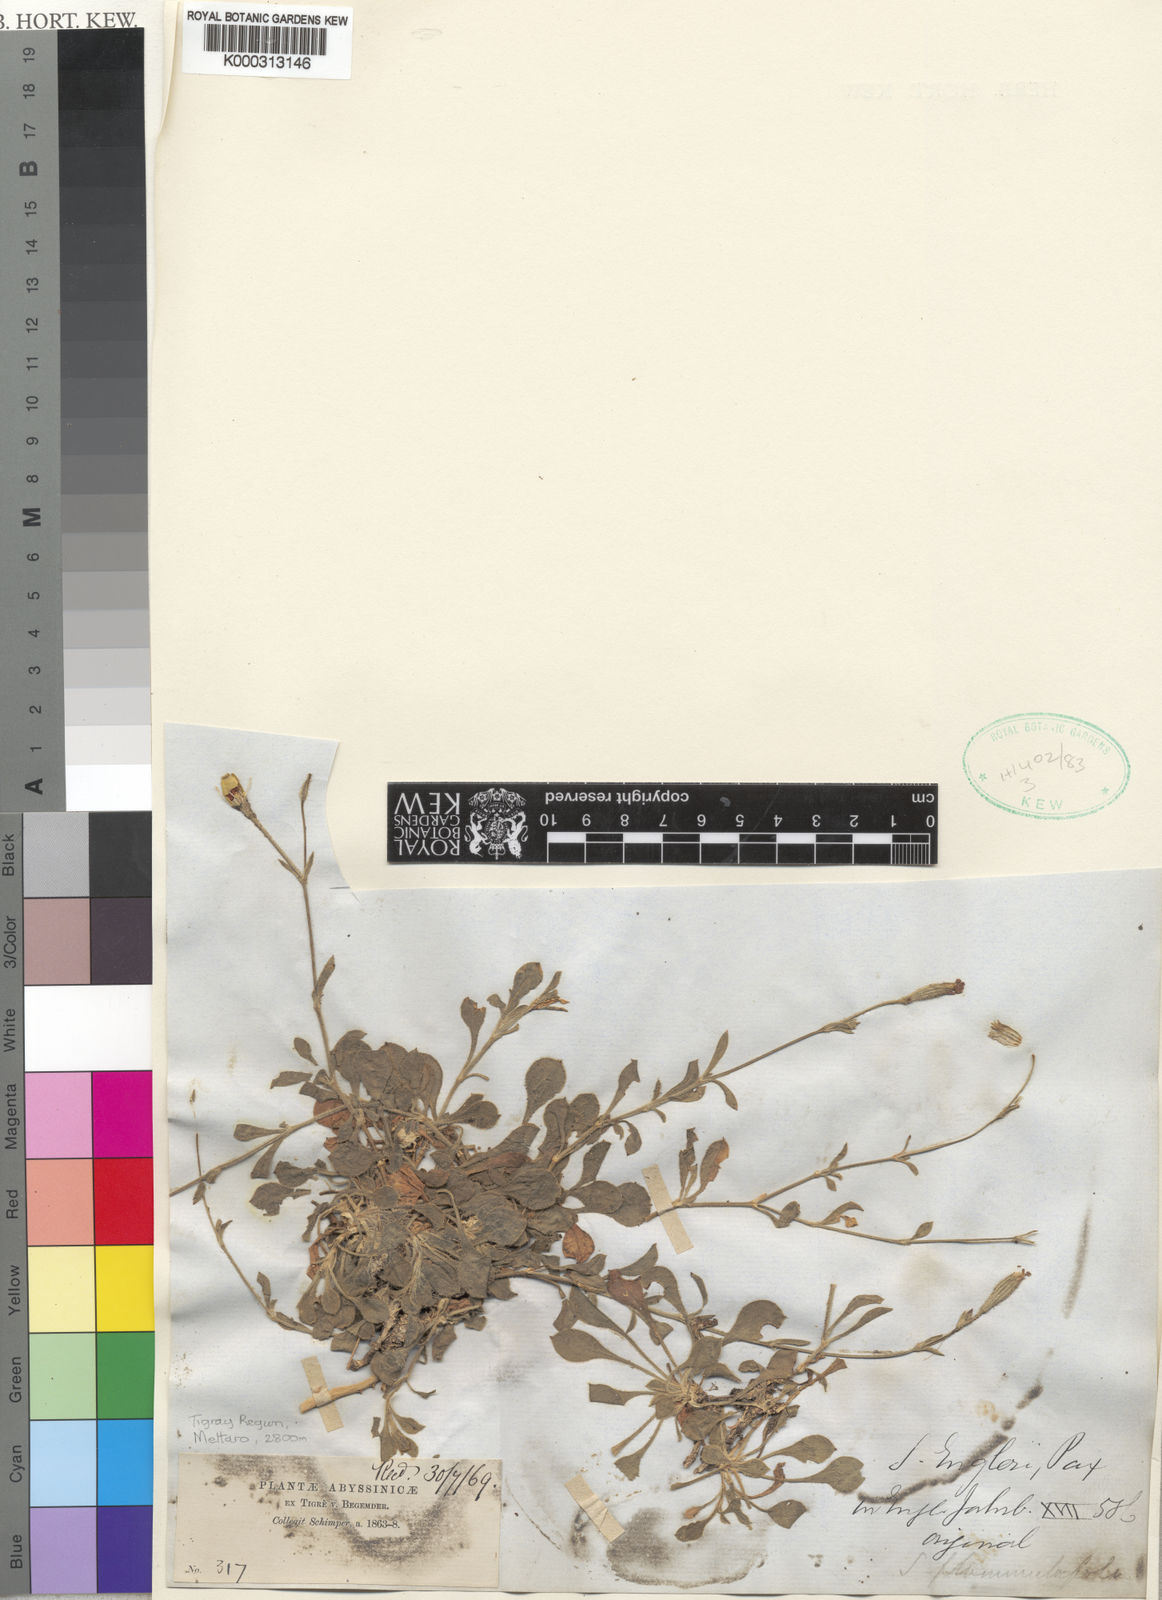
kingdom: Plantae
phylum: Tracheophyta
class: Magnoliopsida
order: Caryophyllales
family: Caryophyllaceae
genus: Silene
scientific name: Silene yemensis
